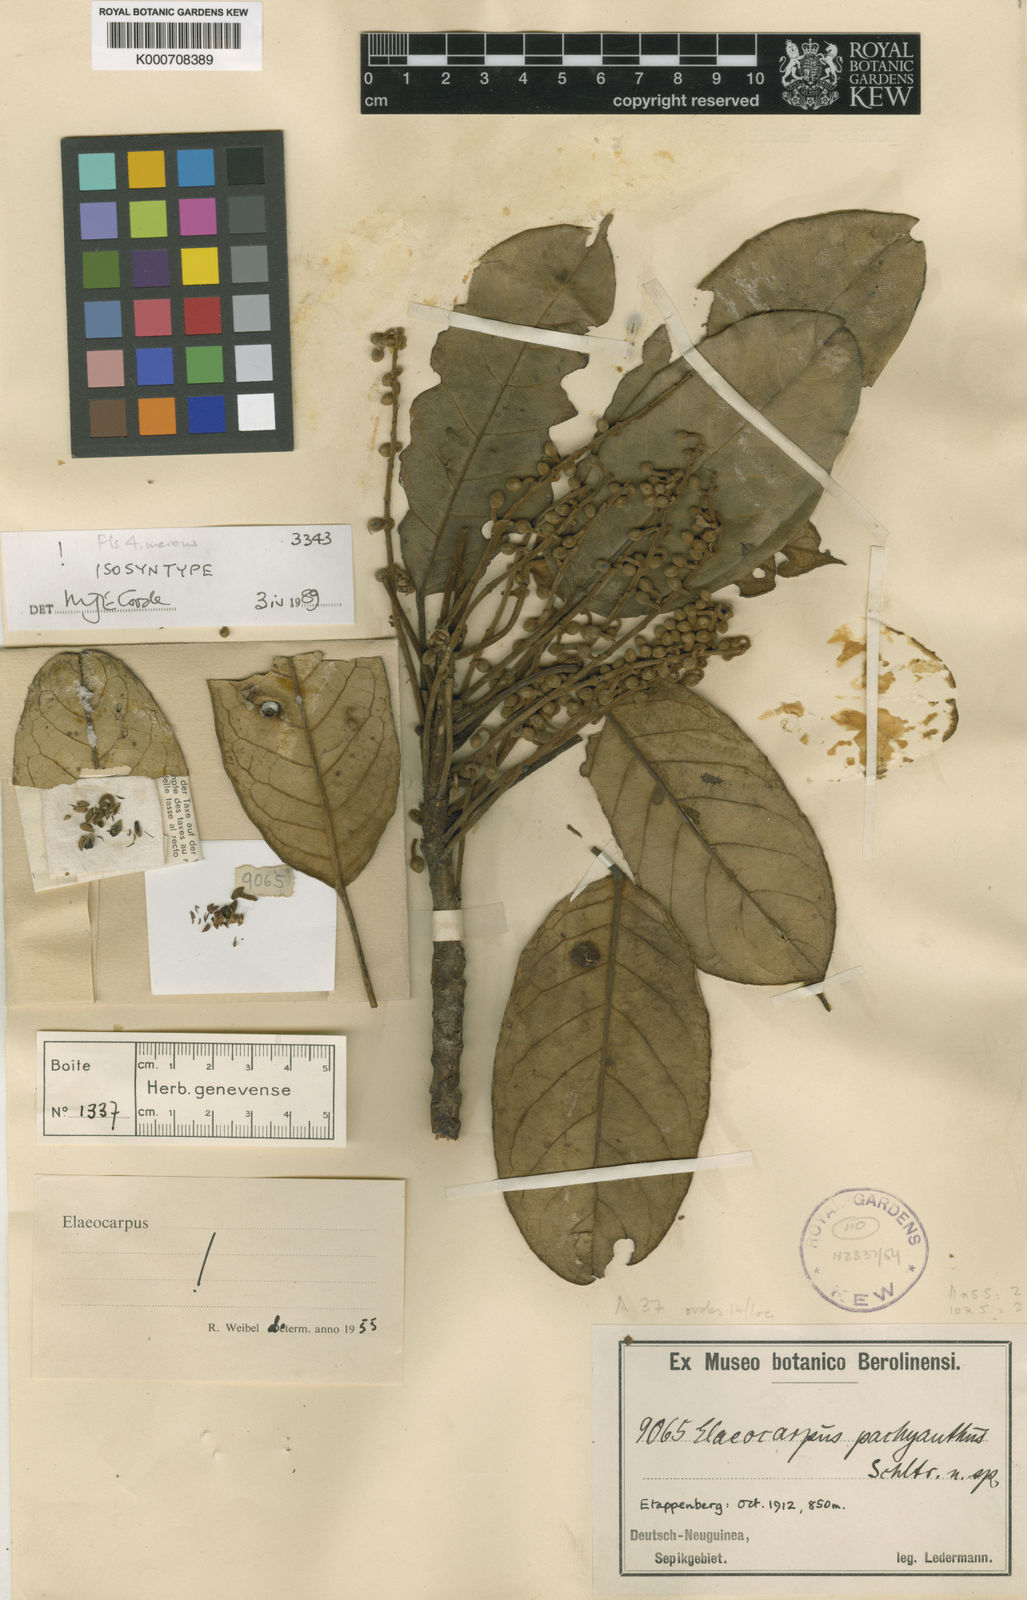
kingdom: Plantae
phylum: Tracheophyta
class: Magnoliopsida
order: Oxalidales
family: Elaeocarpaceae
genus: Elaeocarpus
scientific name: Elaeocarpus pachyanthus
